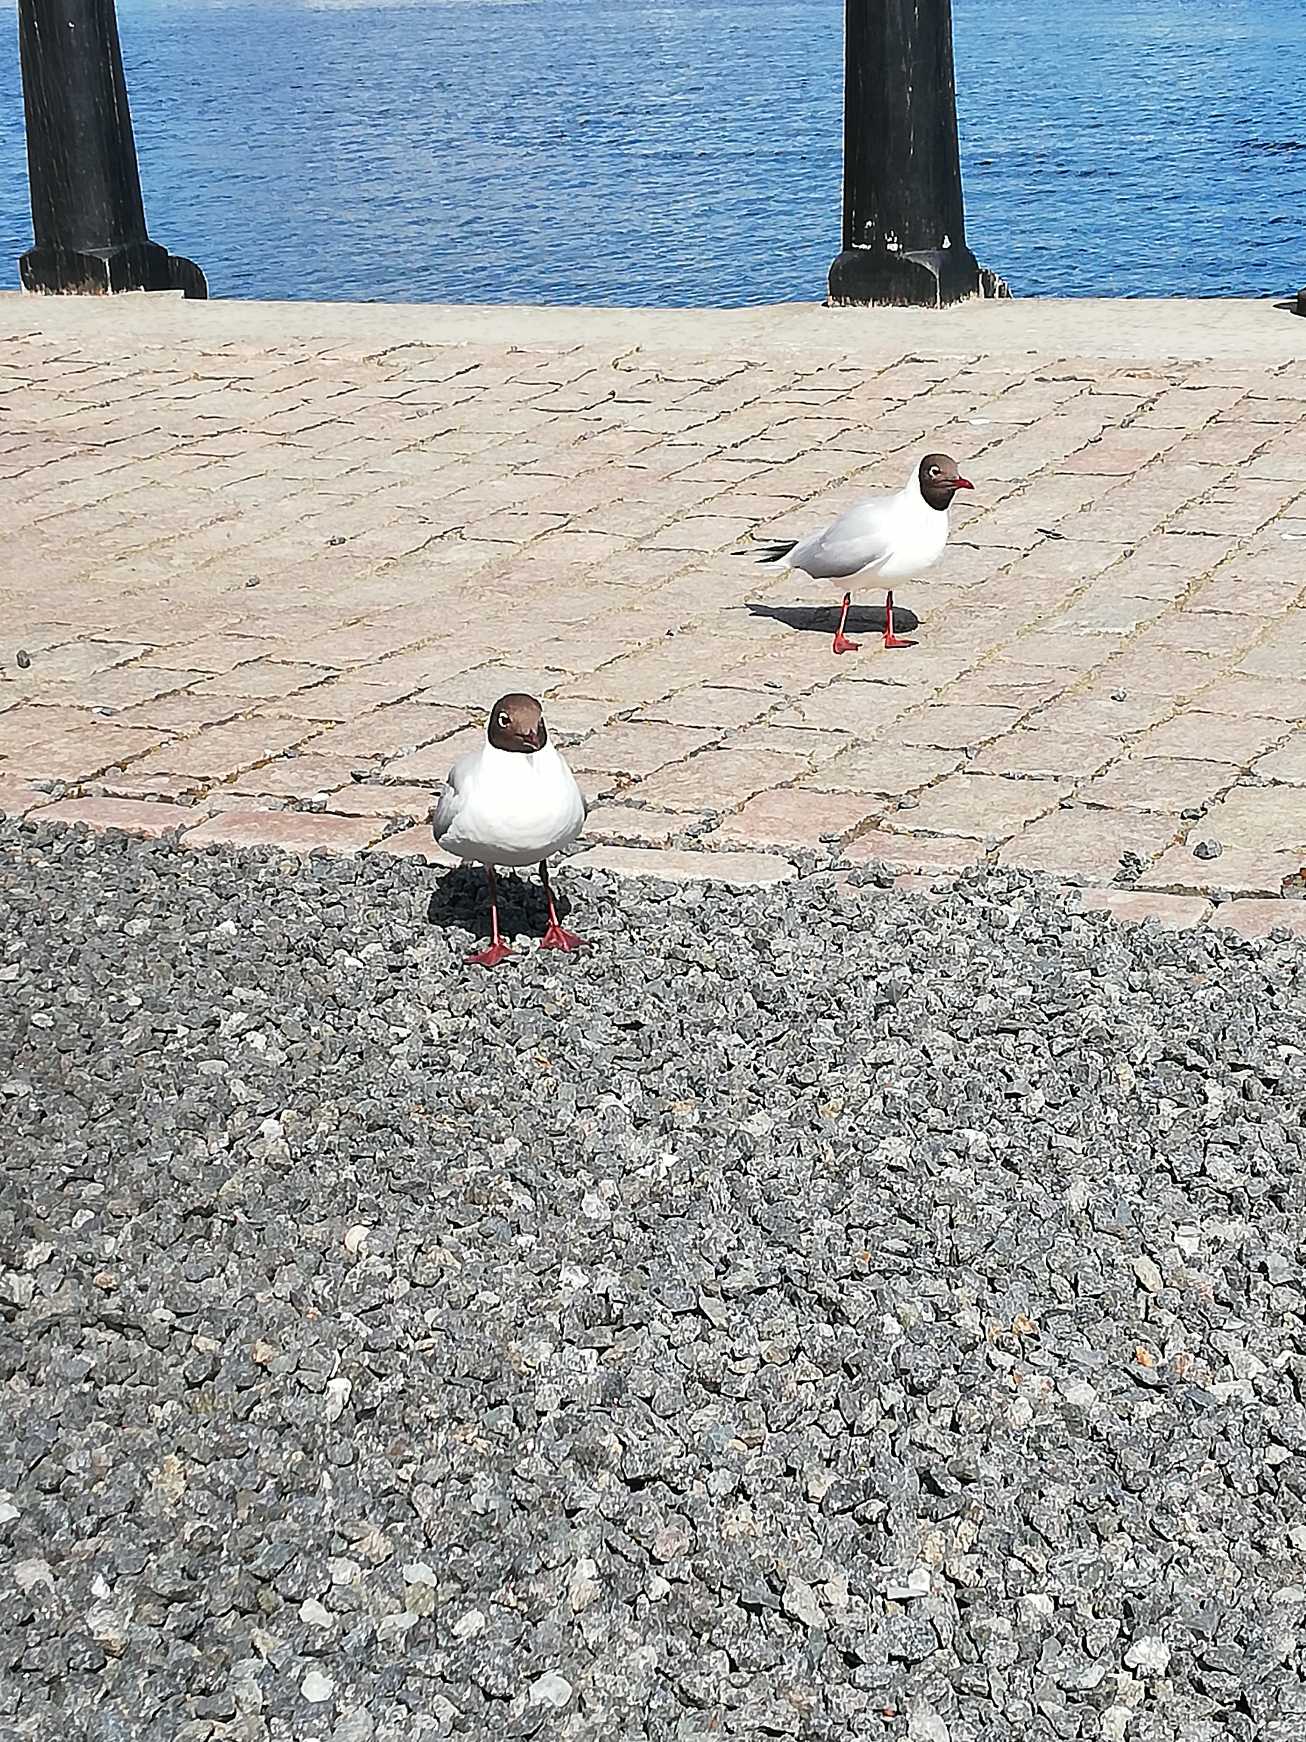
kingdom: Animalia
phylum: Chordata
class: Aves
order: Charadriiformes
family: Laridae
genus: Chroicocephalus
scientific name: Chroicocephalus ridibundus
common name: Hættemåge
